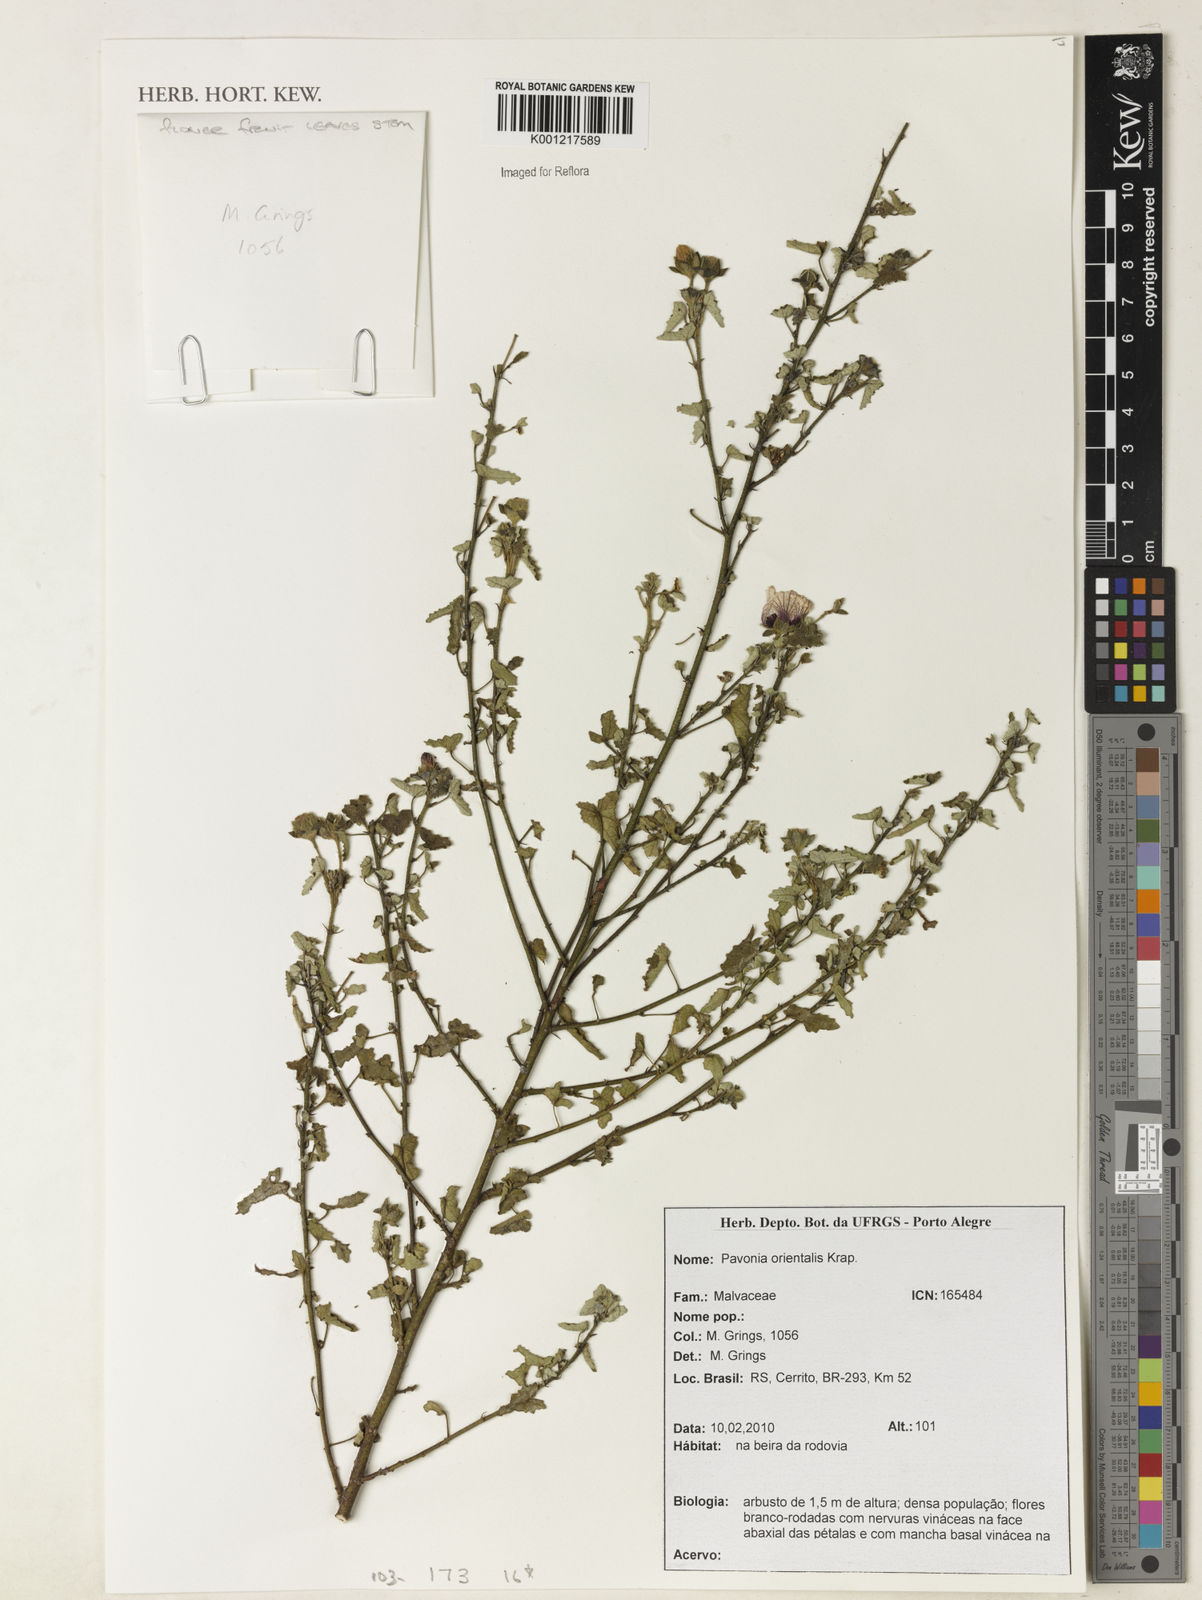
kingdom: Plantae
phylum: Tracheophyta
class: Magnoliopsida
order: Malvales
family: Malvaceae
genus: Pavonia
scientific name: Pavonia orientalis
